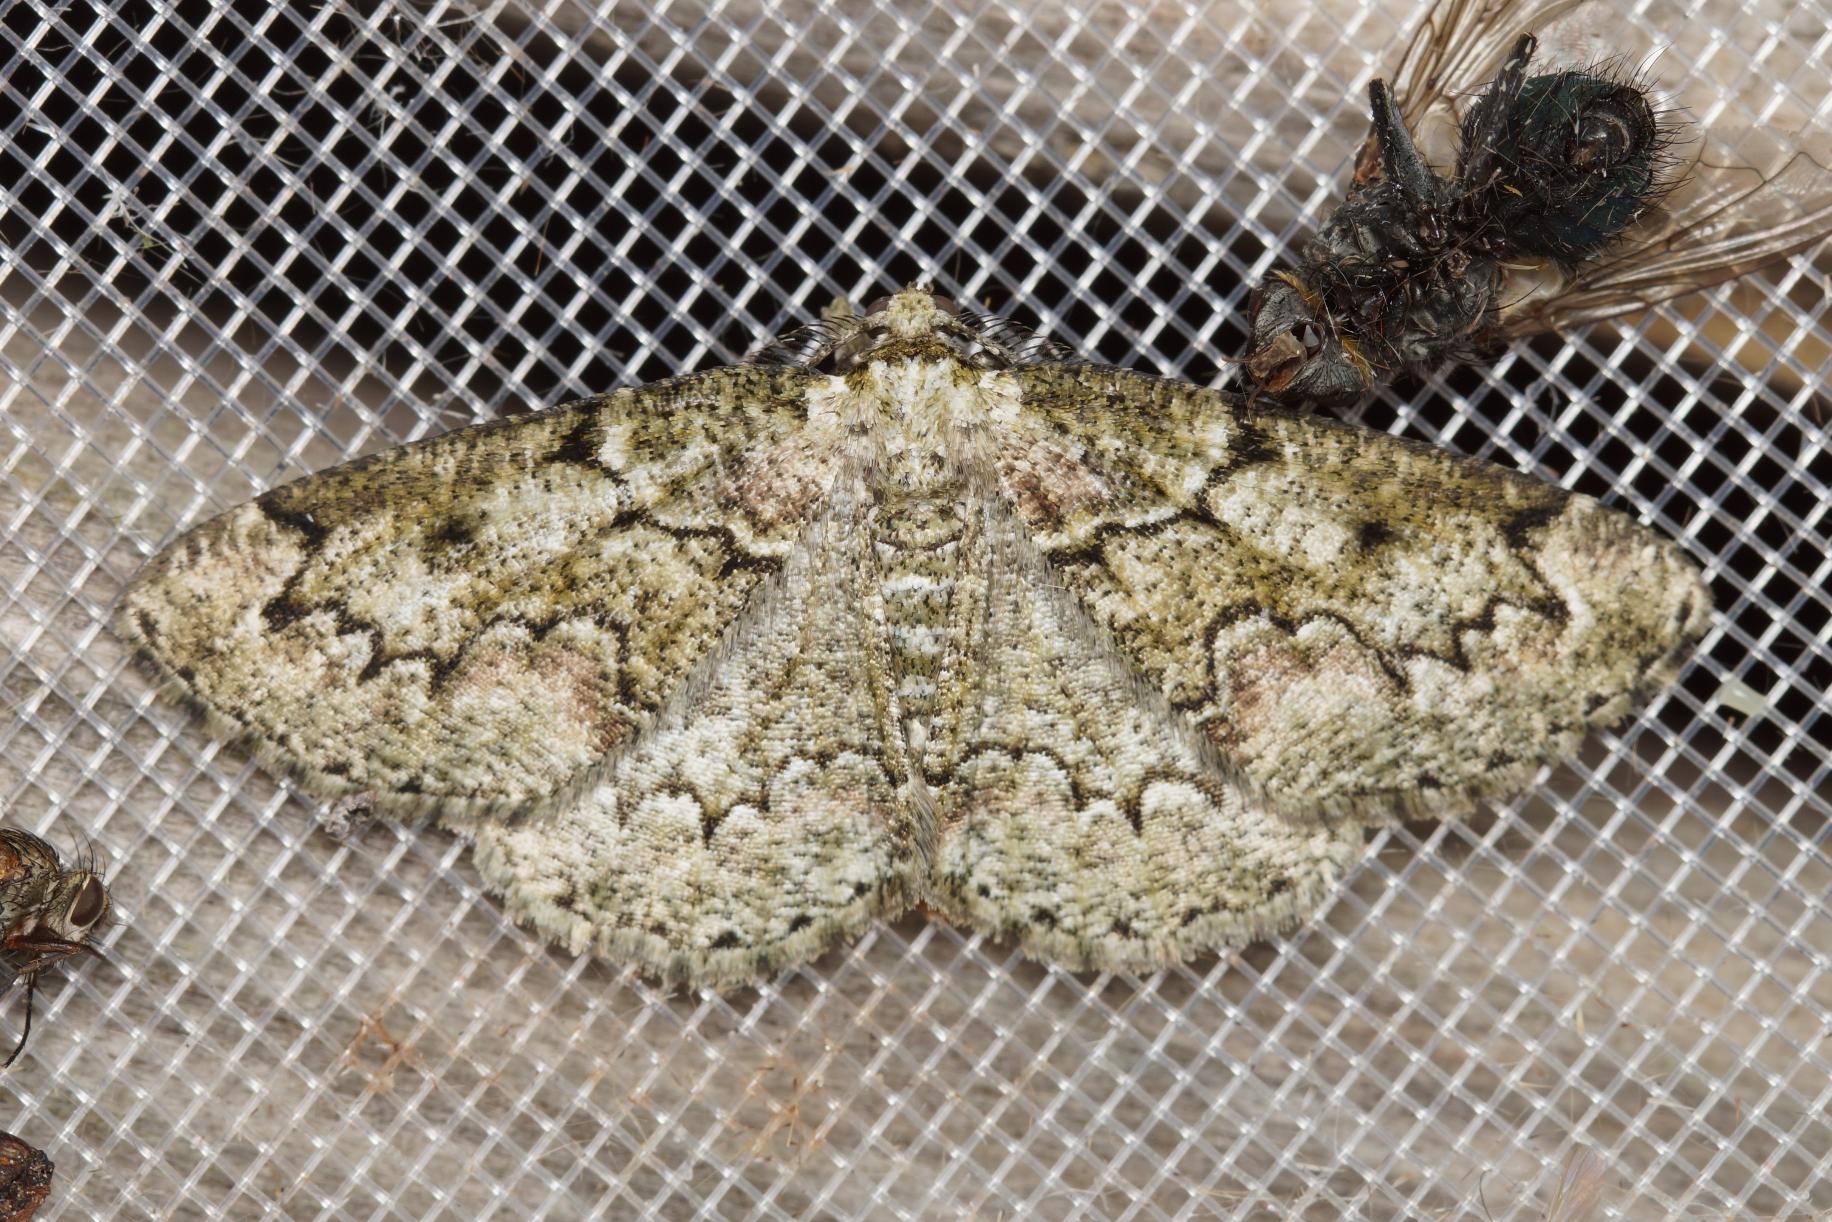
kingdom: Animalia
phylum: Arthropoda
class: Insecta
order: Lepidoptera
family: Geometridae
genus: Cleorodes
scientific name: Cleorodes lichenaria
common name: Lille lavmåler
